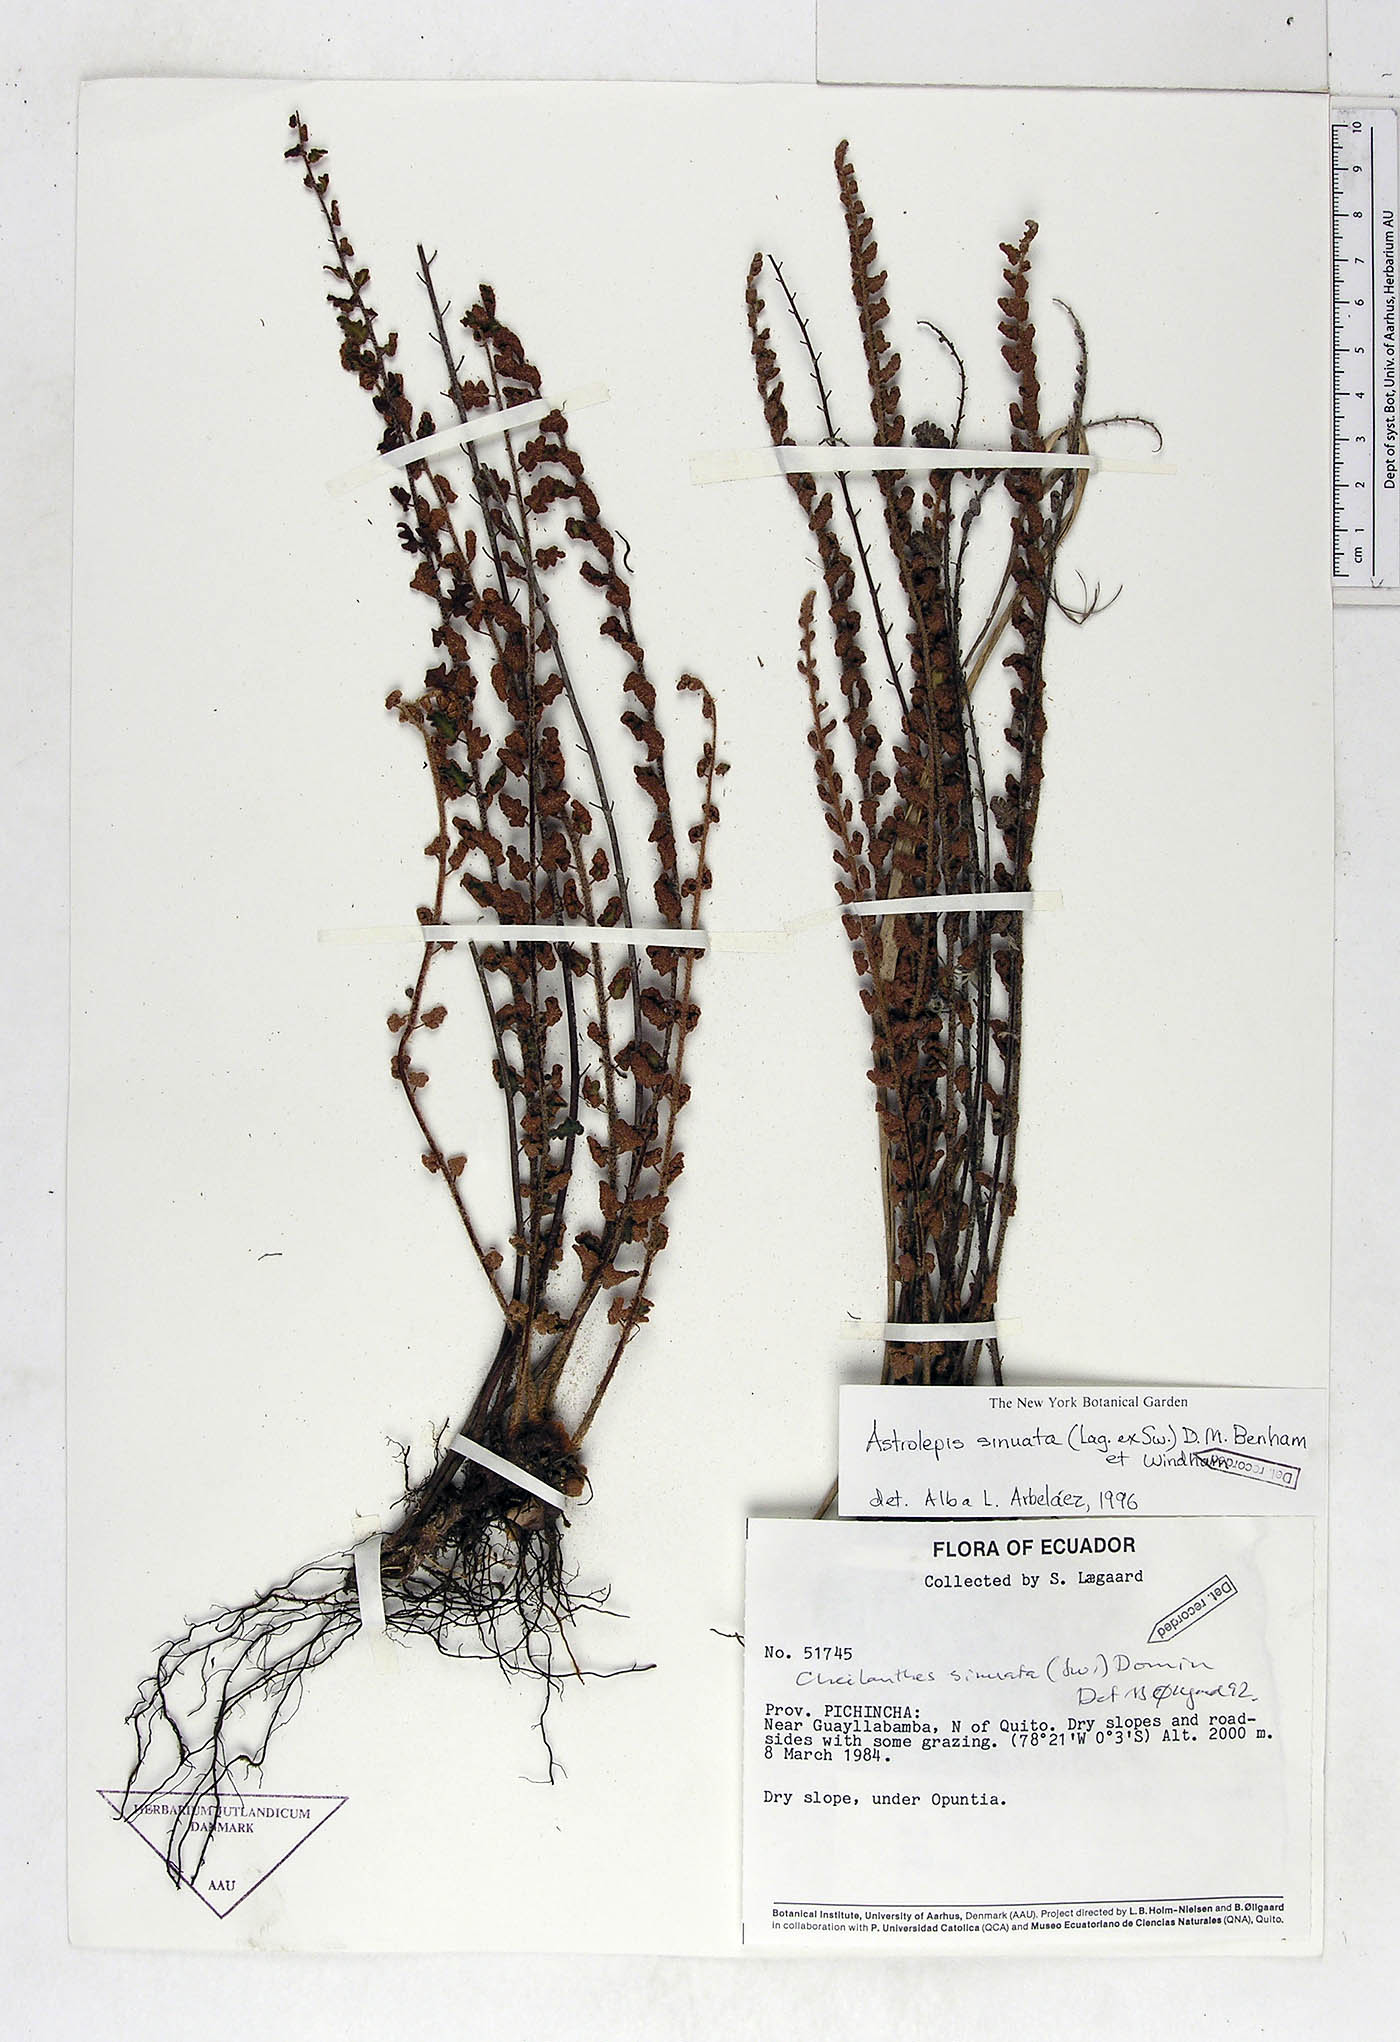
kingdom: Plantae
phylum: Tracheophyta
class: Polypodiopsida
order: Polypodiales
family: Pteridaceae
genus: Astrolepis
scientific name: Astrolepis sinuata
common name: Wavy scaly cloakfern
